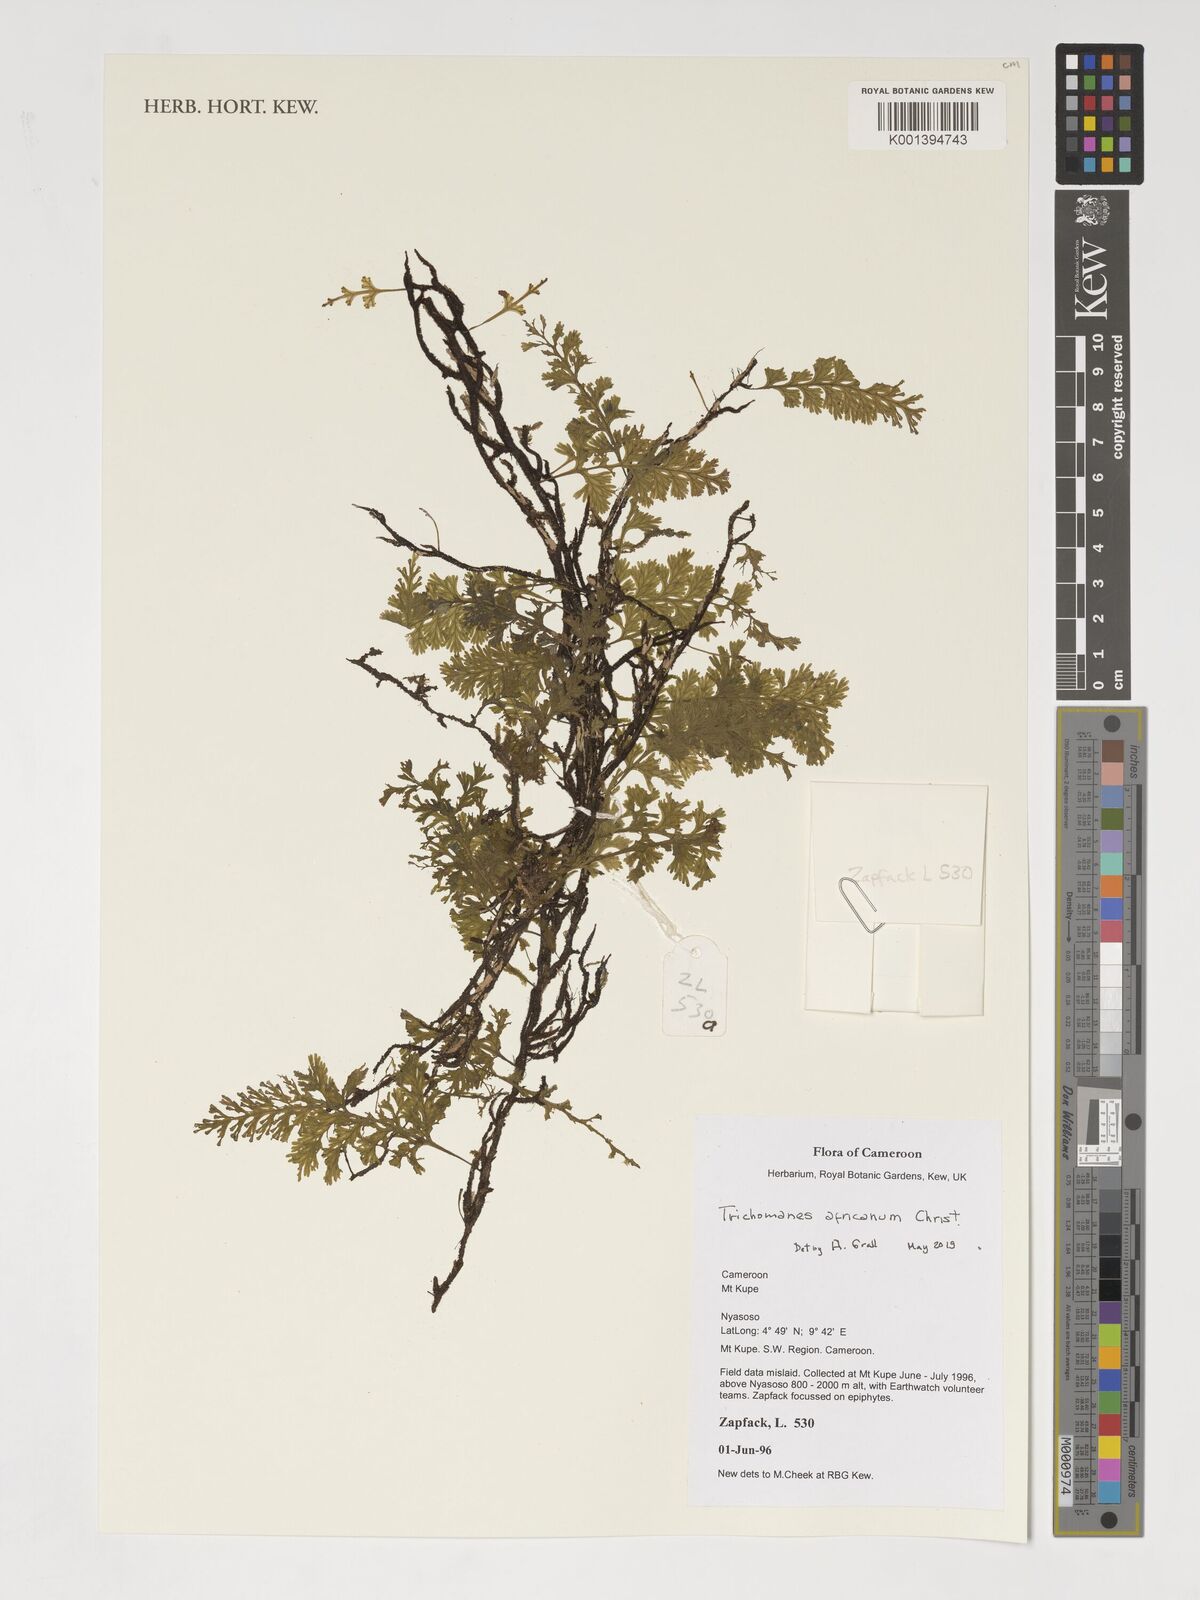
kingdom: Plantae
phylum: Tracheophyta
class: Polypodiopsida
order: Hymenophyllales
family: Hymenophyllaceae
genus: Crepidomanes
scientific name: Crepidomanes africanum
